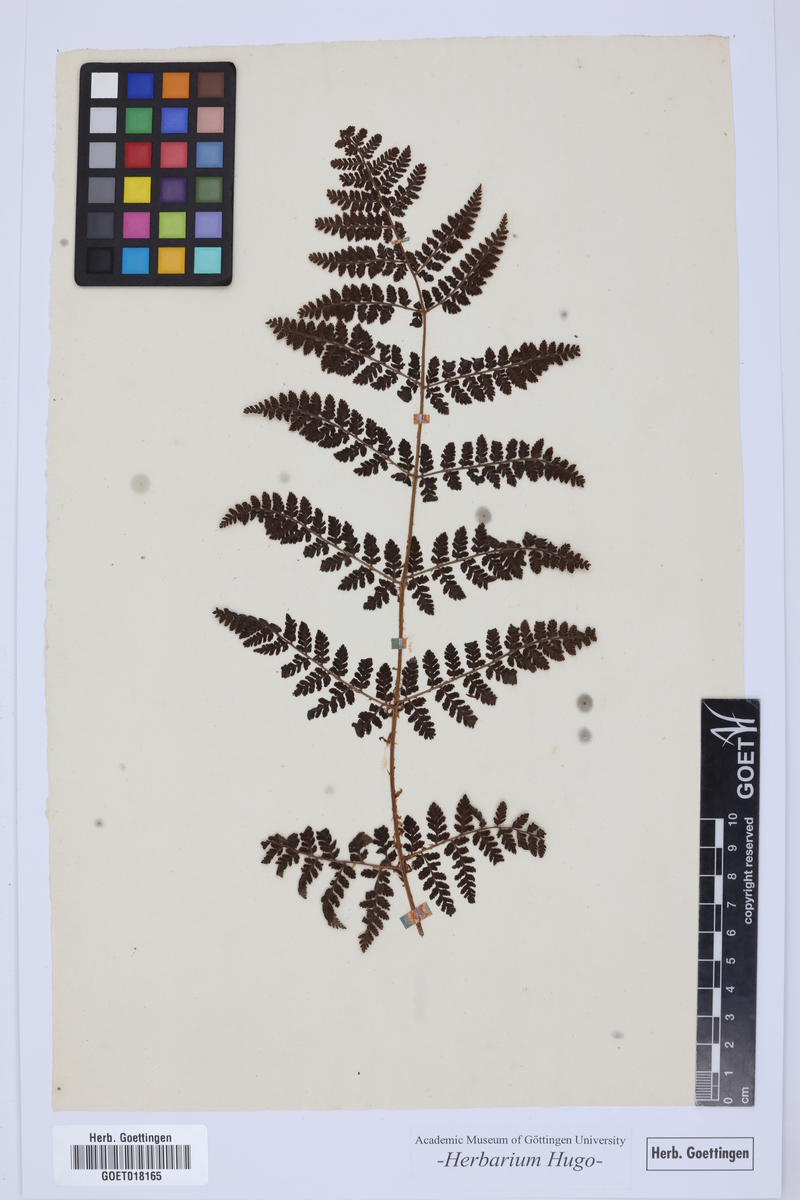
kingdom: Plantae
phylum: Tracheophyta
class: Polypodiopsida
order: Polypodiales
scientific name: Polypodiales
